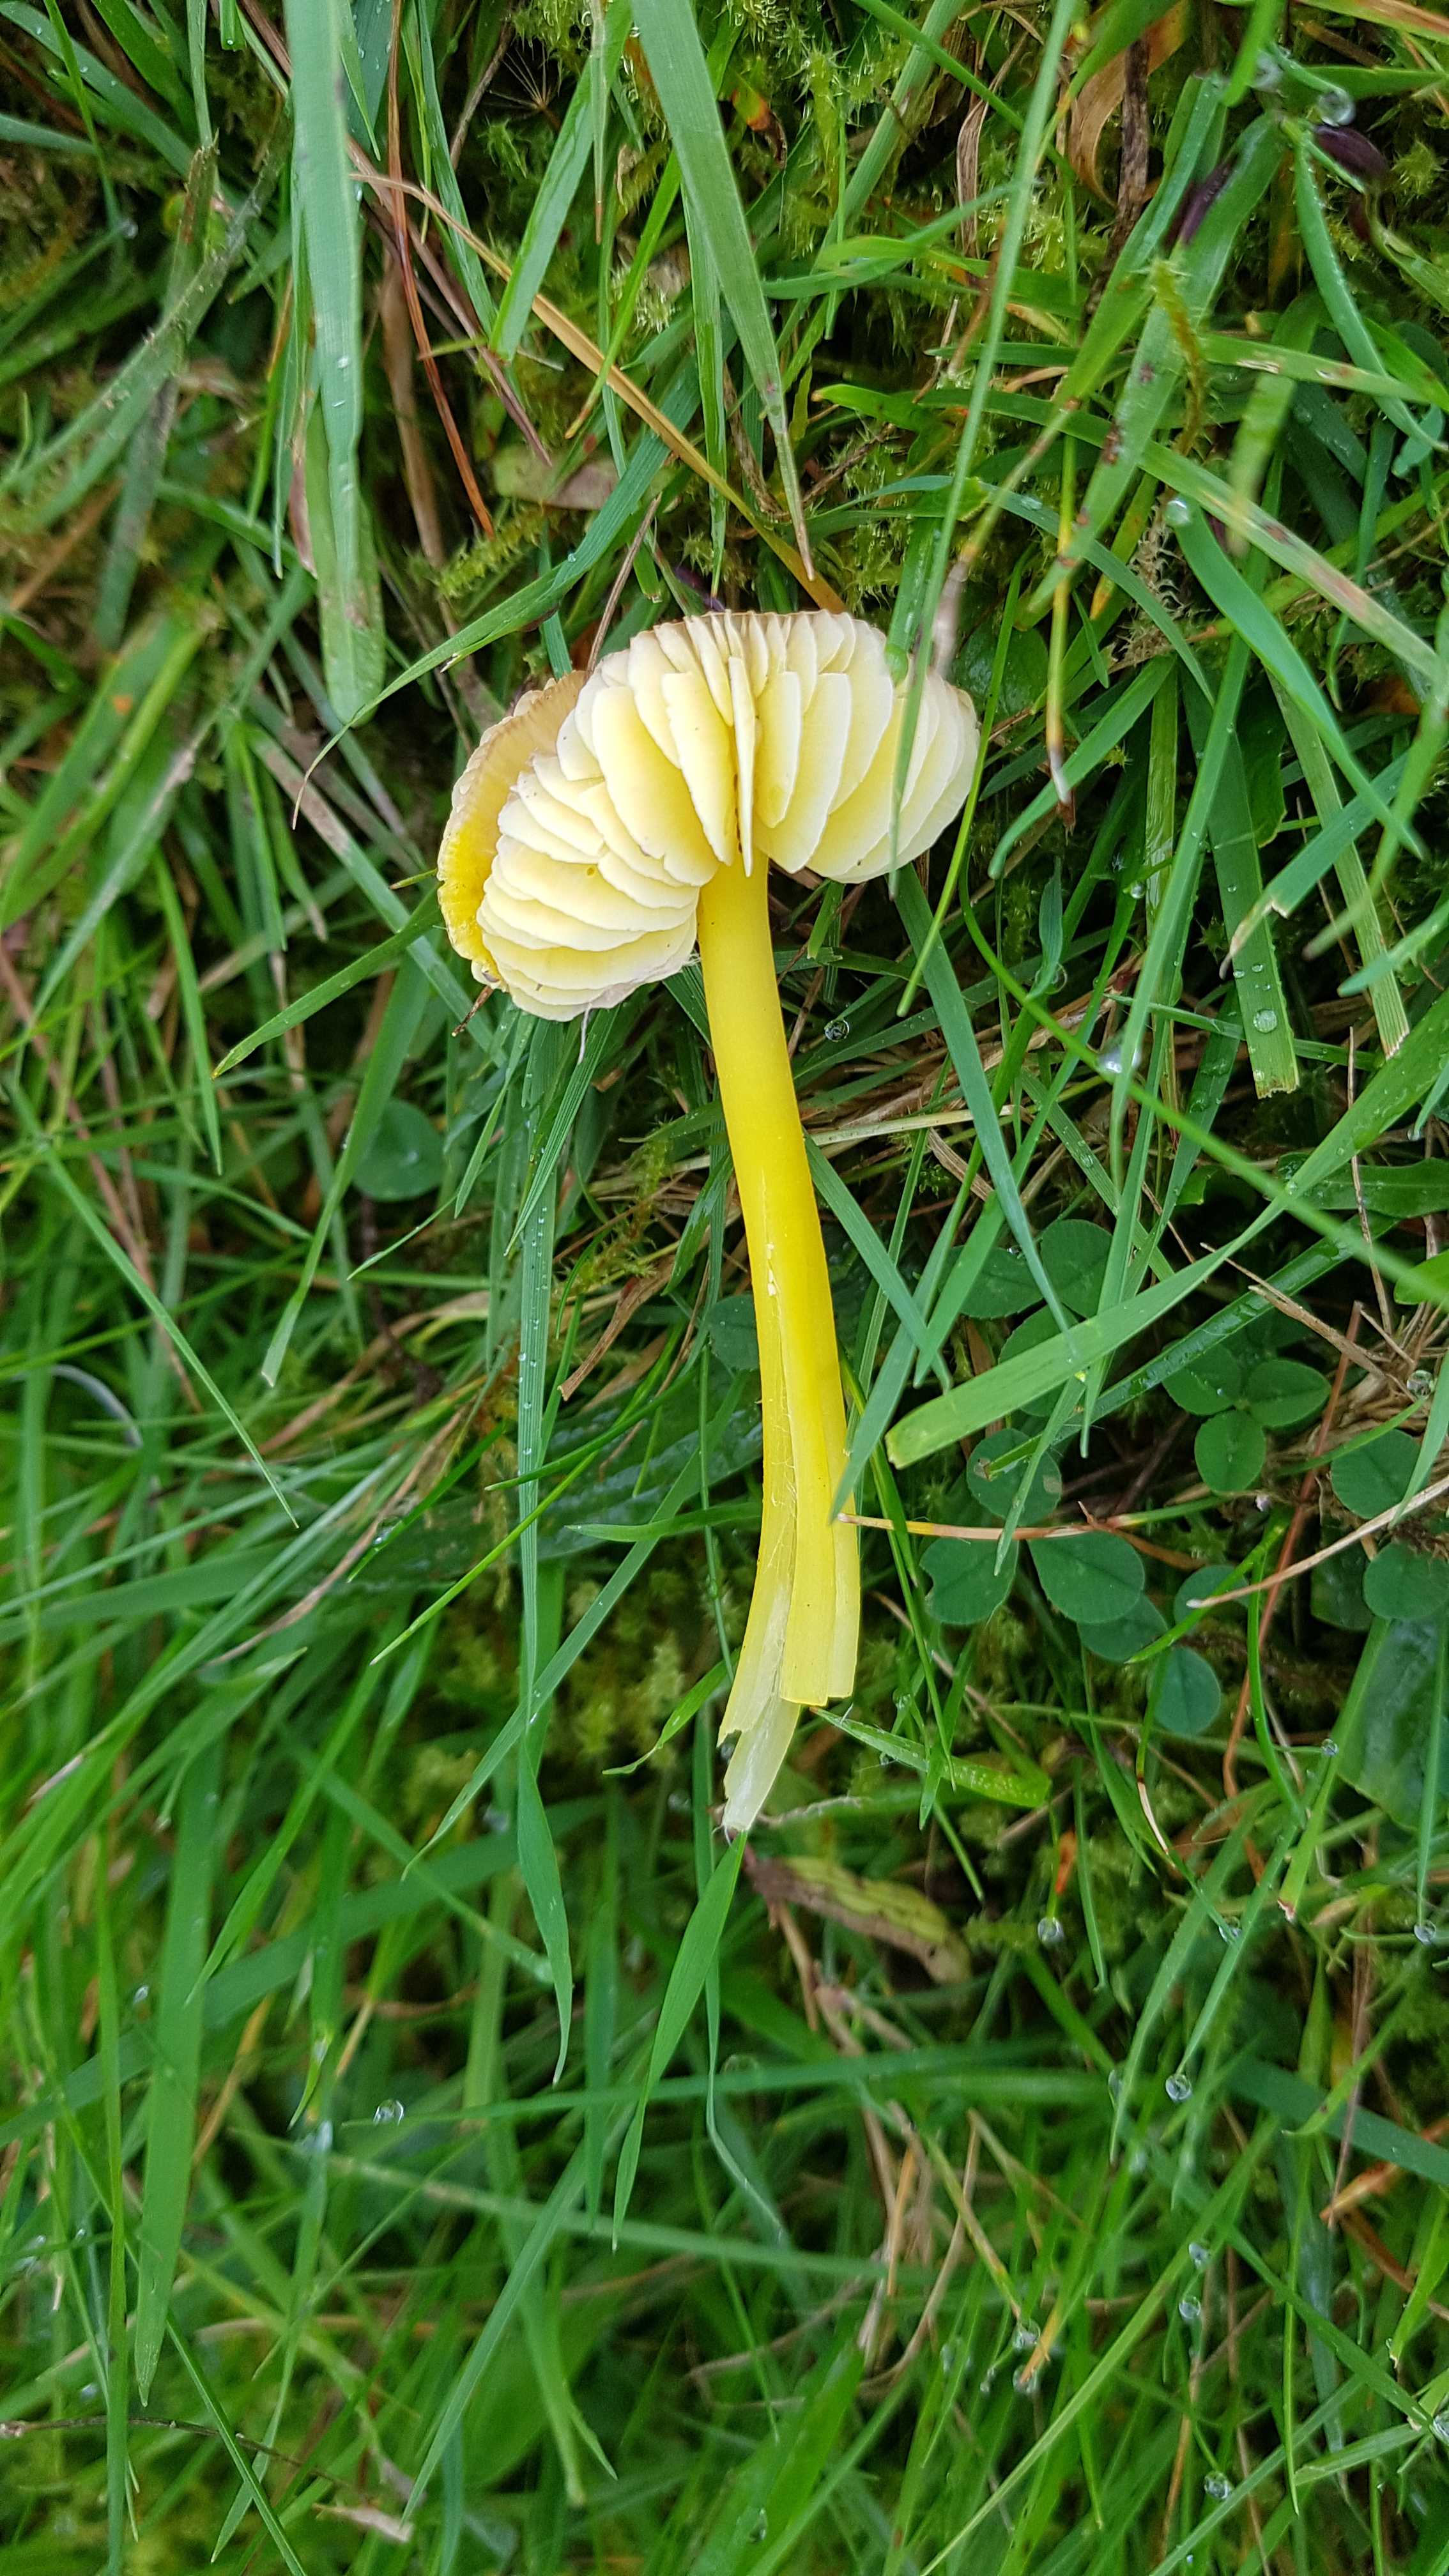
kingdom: Fungi
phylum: Basidiomycota
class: Agaricomycetes
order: Agaricales
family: Hygrophoraceae
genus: Hygrocybe
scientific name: Hygrocybe chlorophana
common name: gul vokshat
